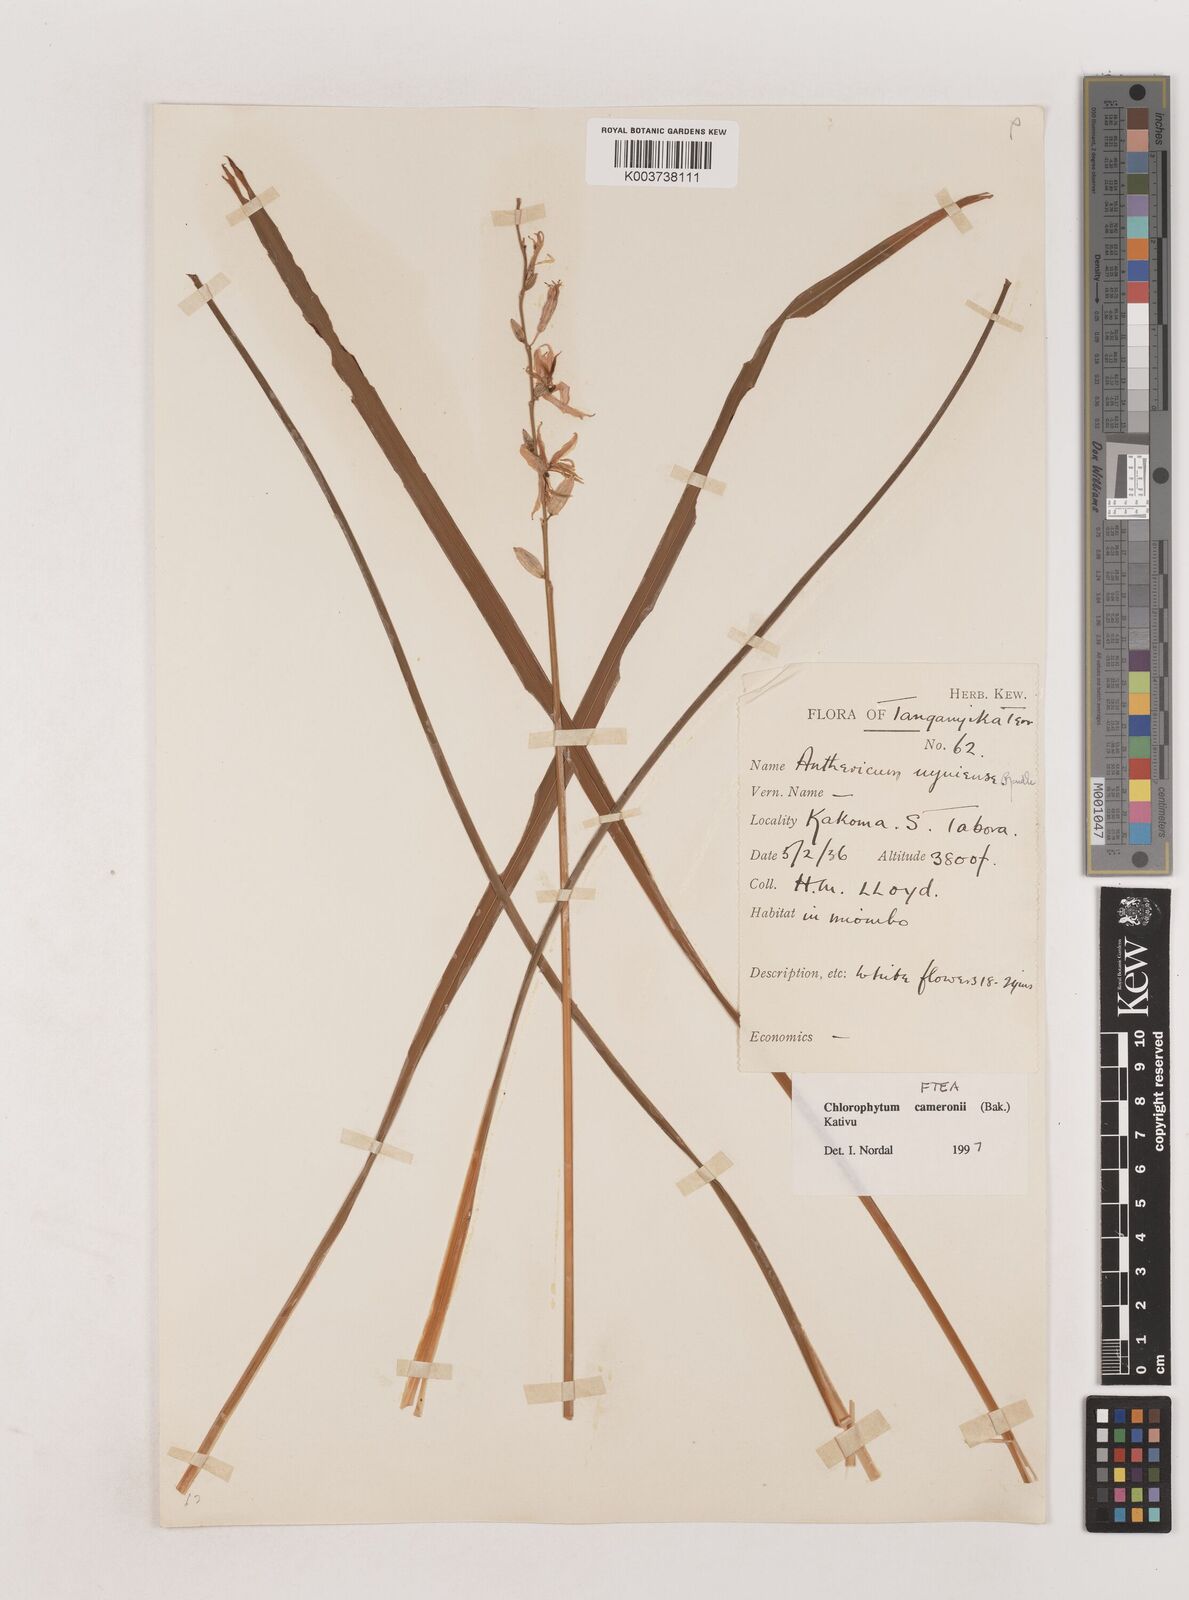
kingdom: Plantae
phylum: Tracheophyta
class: Liliopsida
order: Asparagales
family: Asparagaceae
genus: Chlorophytum
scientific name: Chlorophytum cameronii
